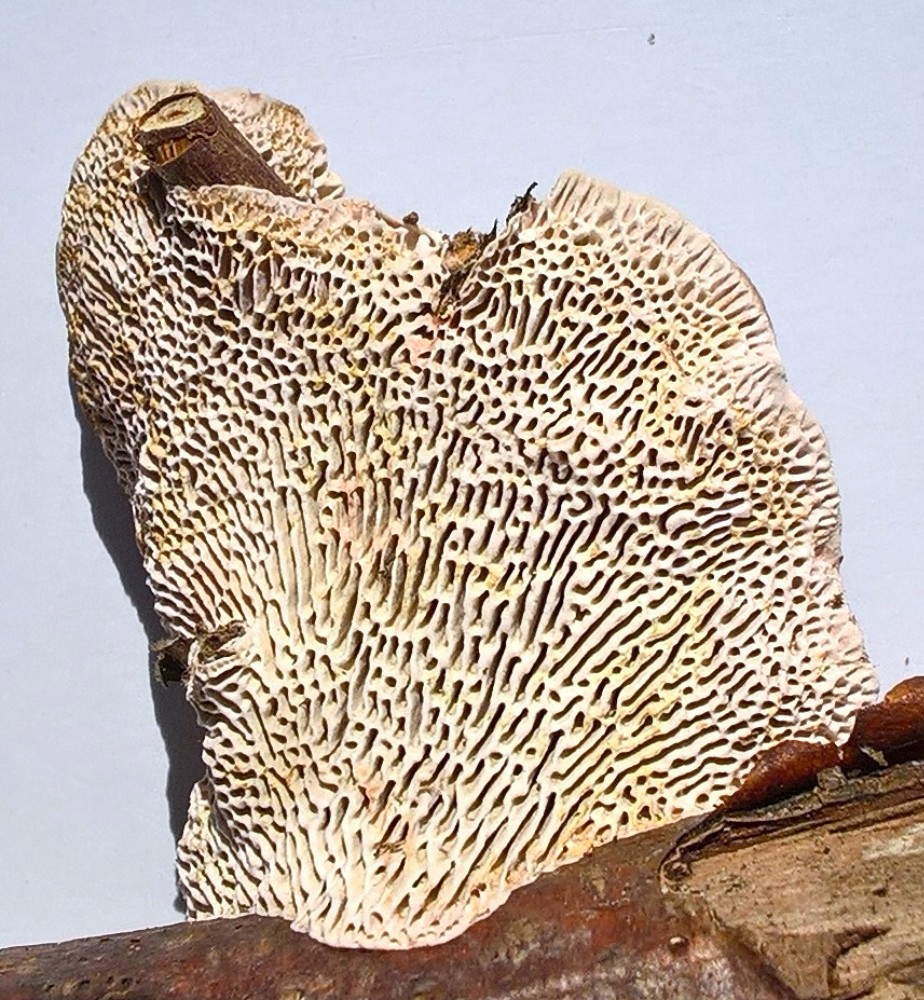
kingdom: Fungi
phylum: Basidiomycota
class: Agaricomycetes
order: Polyporales
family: Polyporaceae
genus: Podofomes
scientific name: Podofomes mollis
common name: blød begporesvamp
